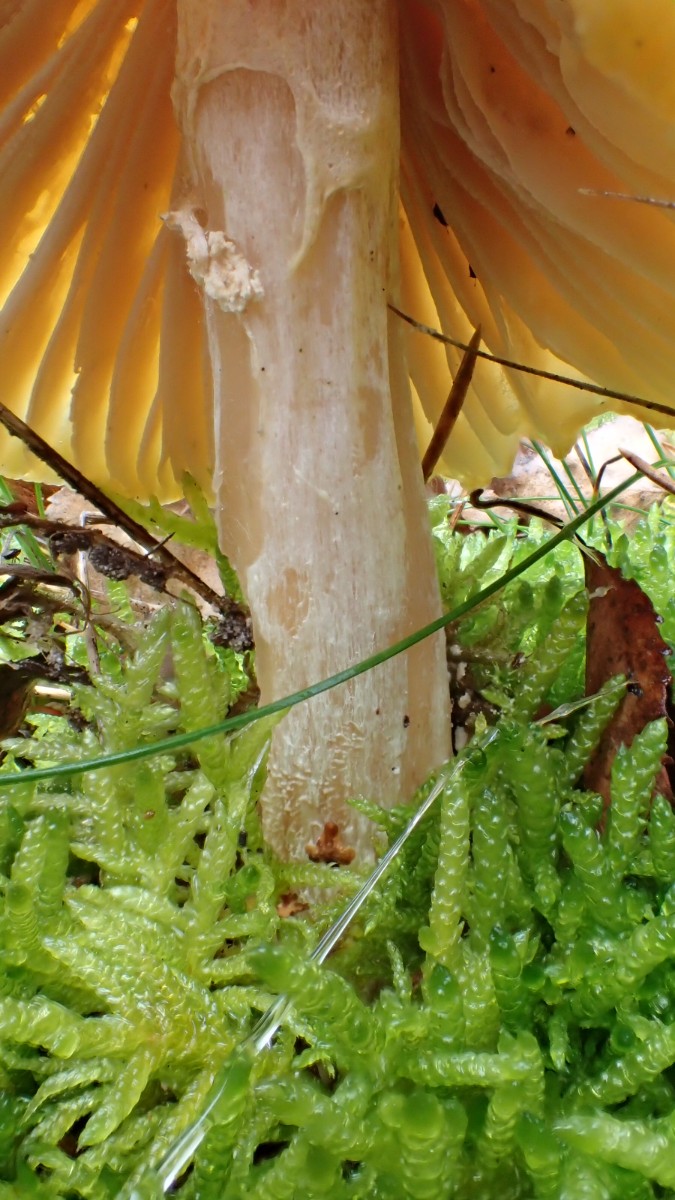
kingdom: Fungi
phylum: Basidiomycota
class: Agaricomycetes
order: Agaricales
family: Amanitaceae
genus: Amanita
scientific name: Amanita muscaria
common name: rød fluesvamp
